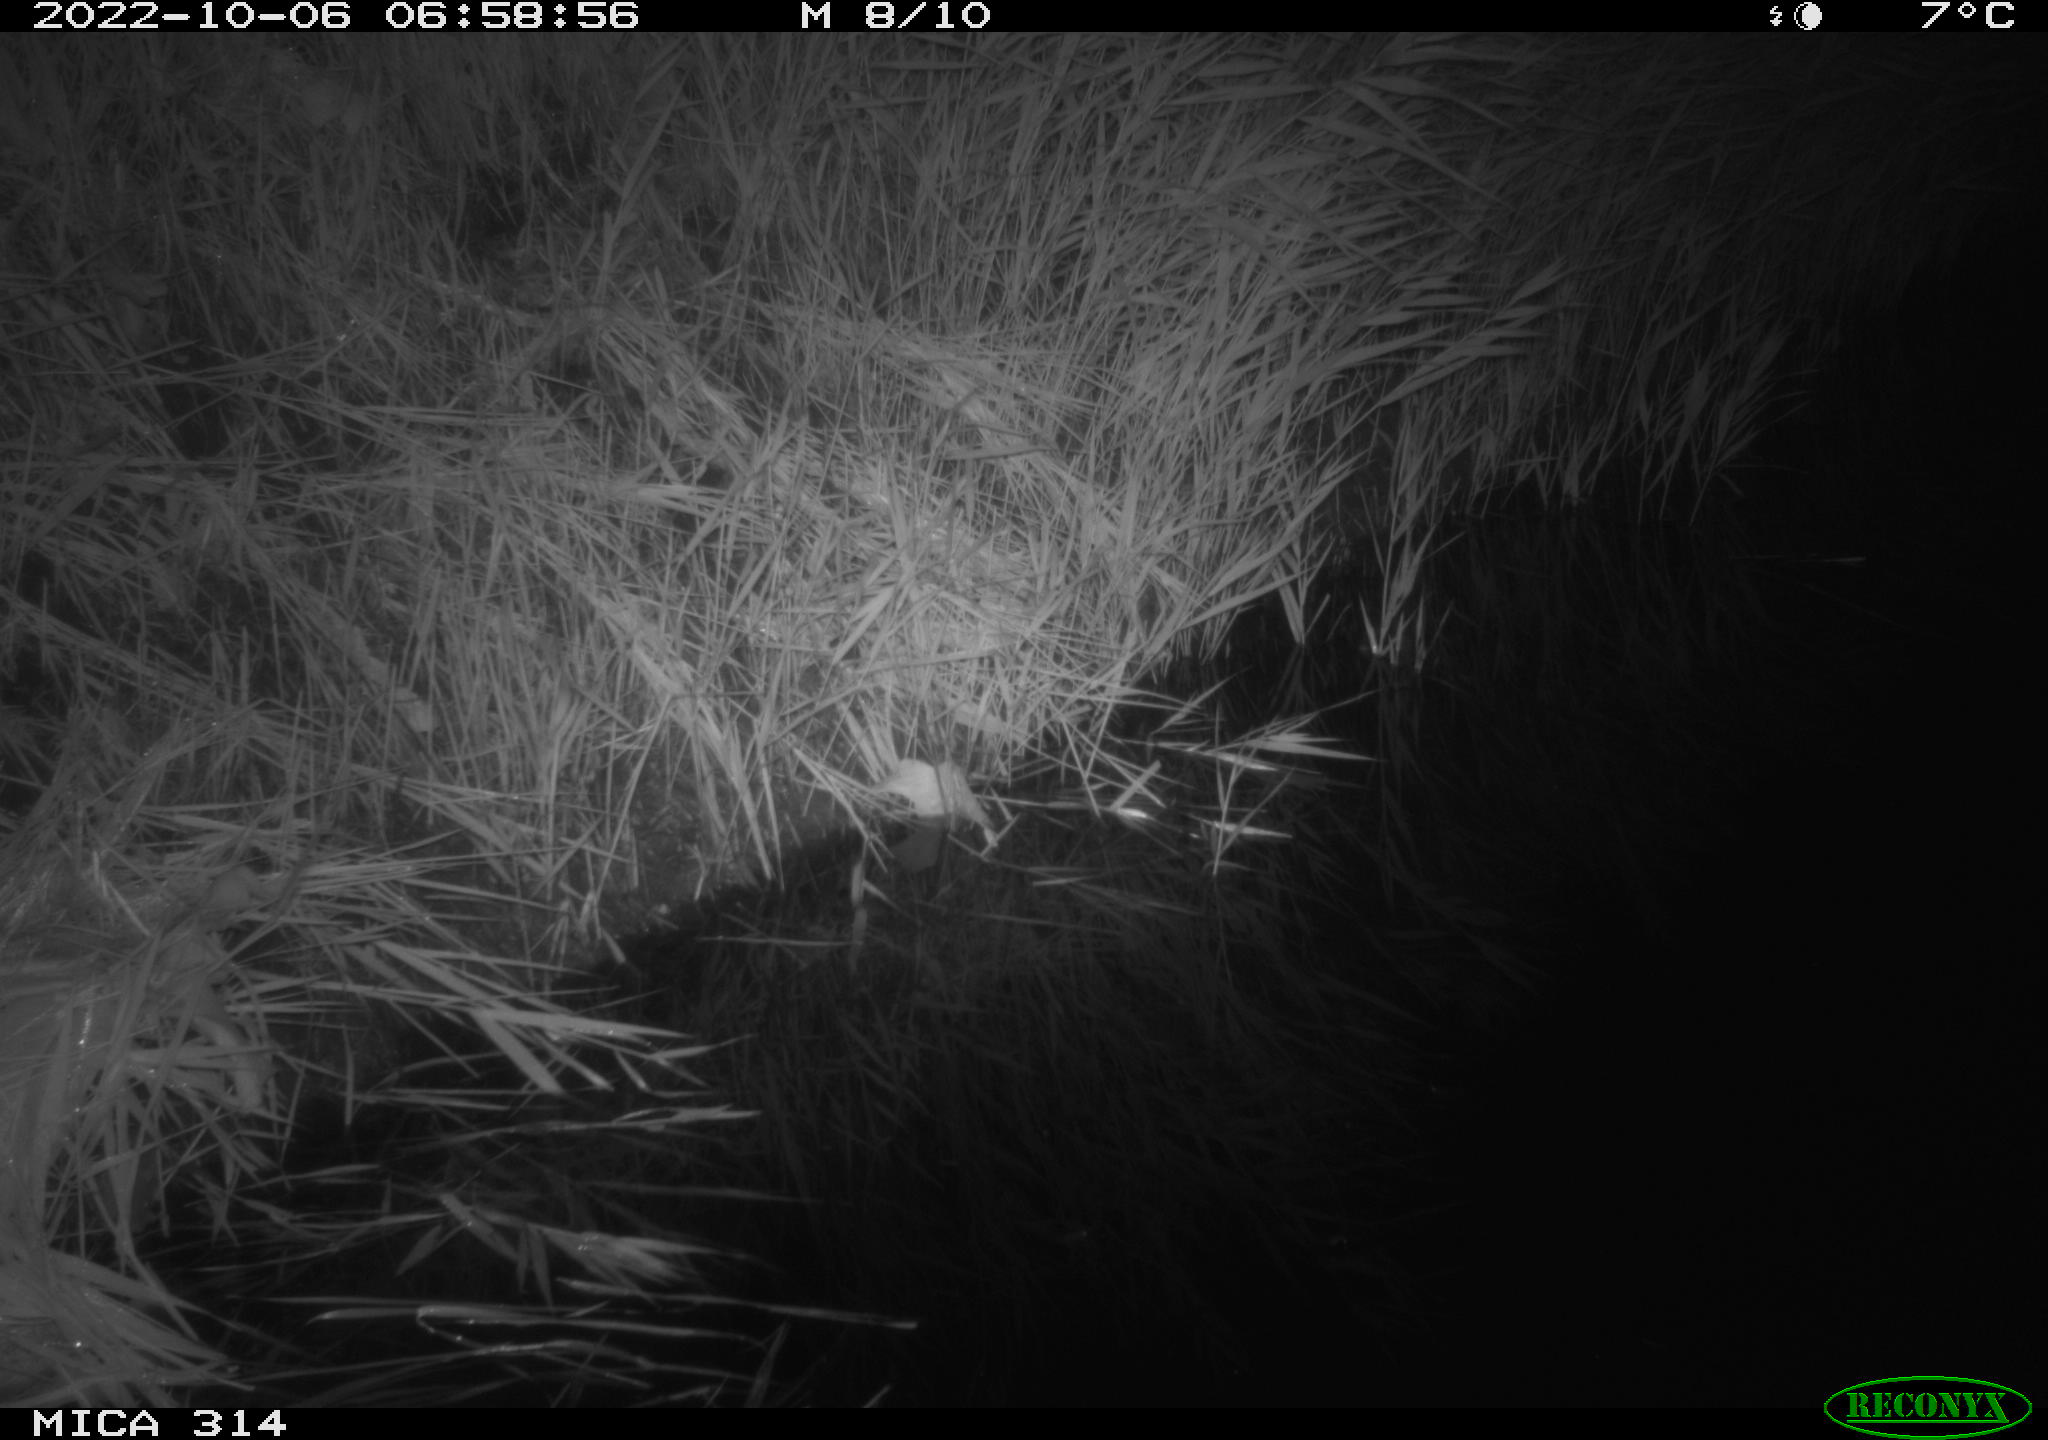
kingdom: Animalia
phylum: Chordata
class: Mammalia
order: Rodentia
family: Cricetidae
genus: Ondatra
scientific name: Ondatra zibethicus
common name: Muskrat
